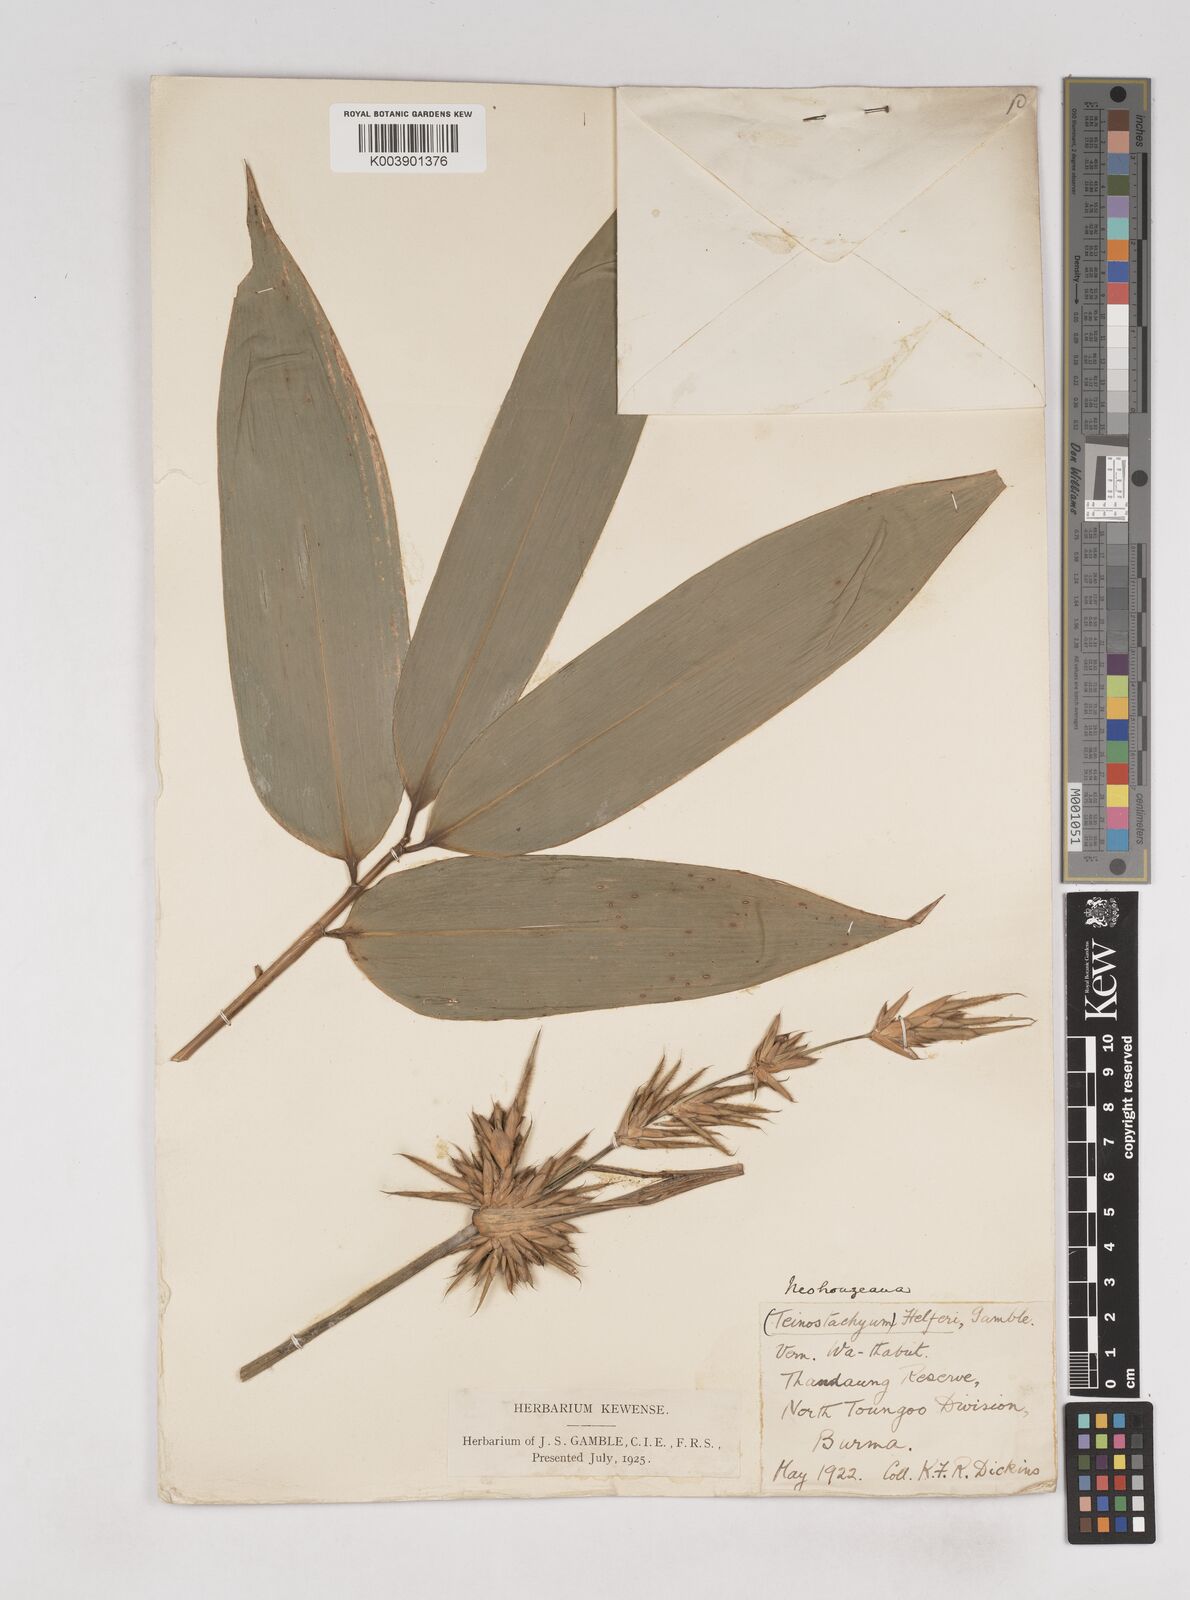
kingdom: Plantae
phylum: Tracheophyta
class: Liliopsida
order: Poales
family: Poaceae
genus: Schizostachyum
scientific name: Schizostachyum helferi
